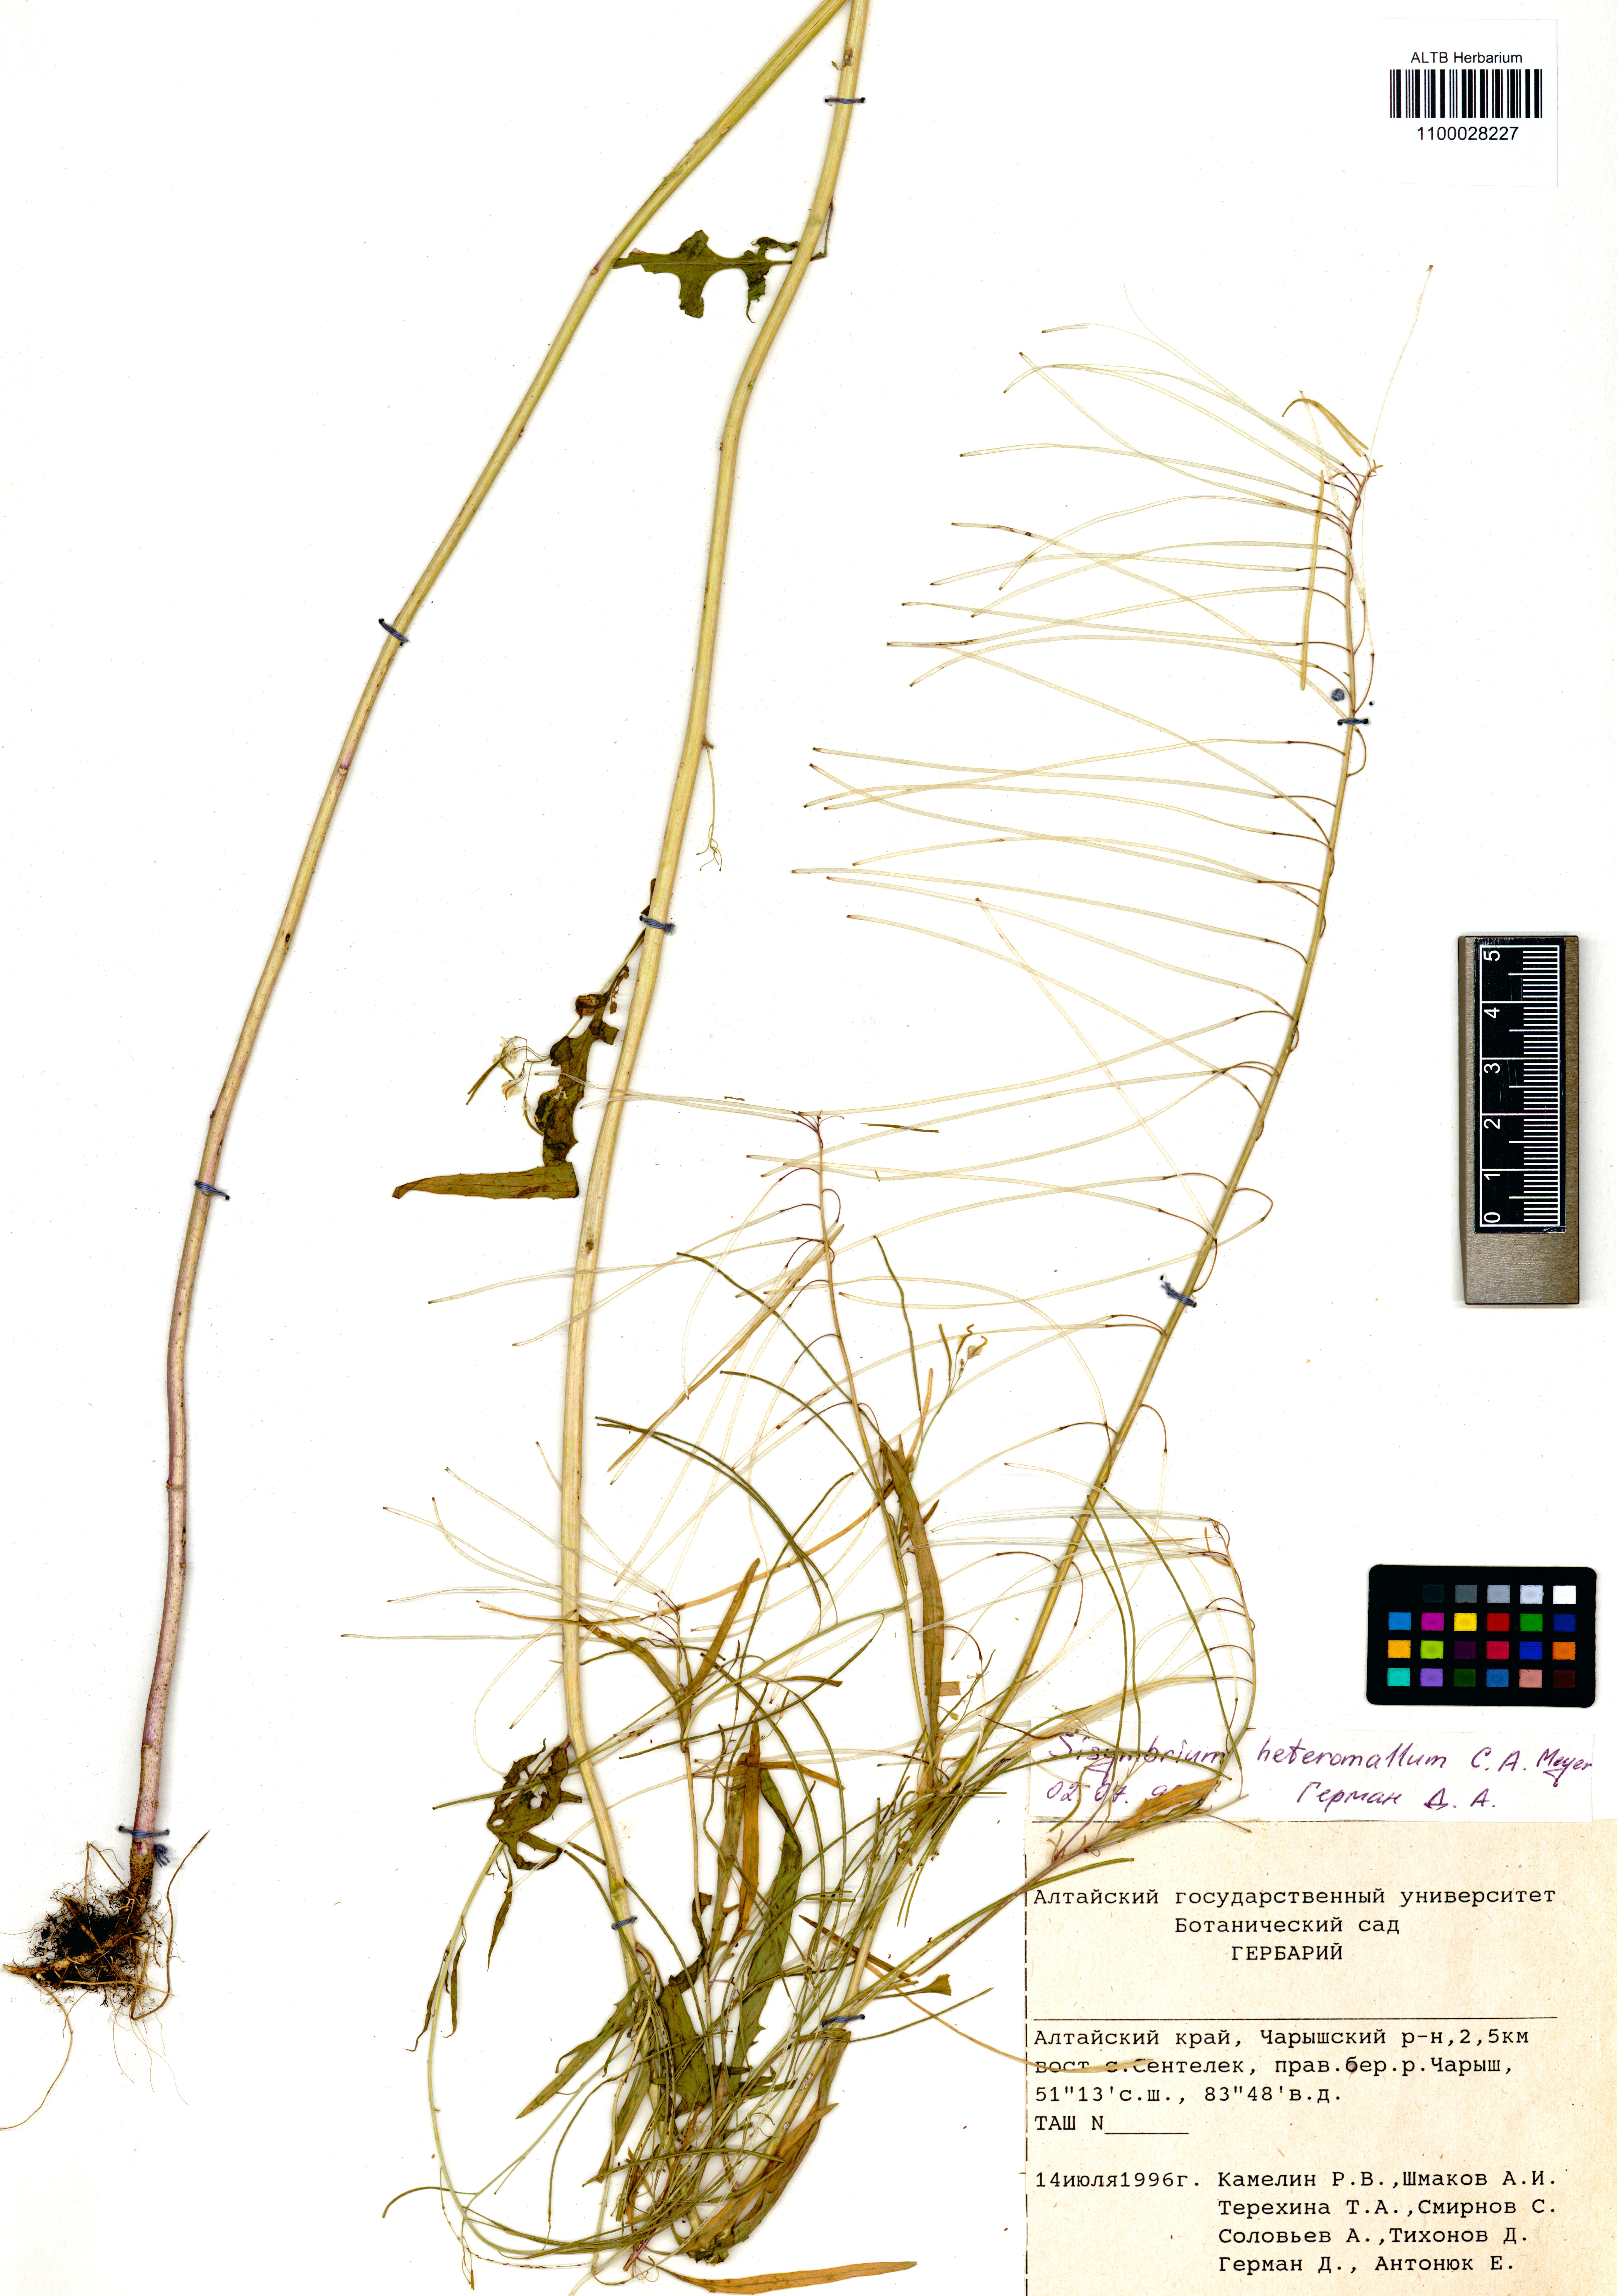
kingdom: Plantae
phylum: Tracheophyta
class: Magnoliopsida
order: Brassicales
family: Brassicaceae
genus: Sisymbrium
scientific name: Sisymbrium heteromallum
